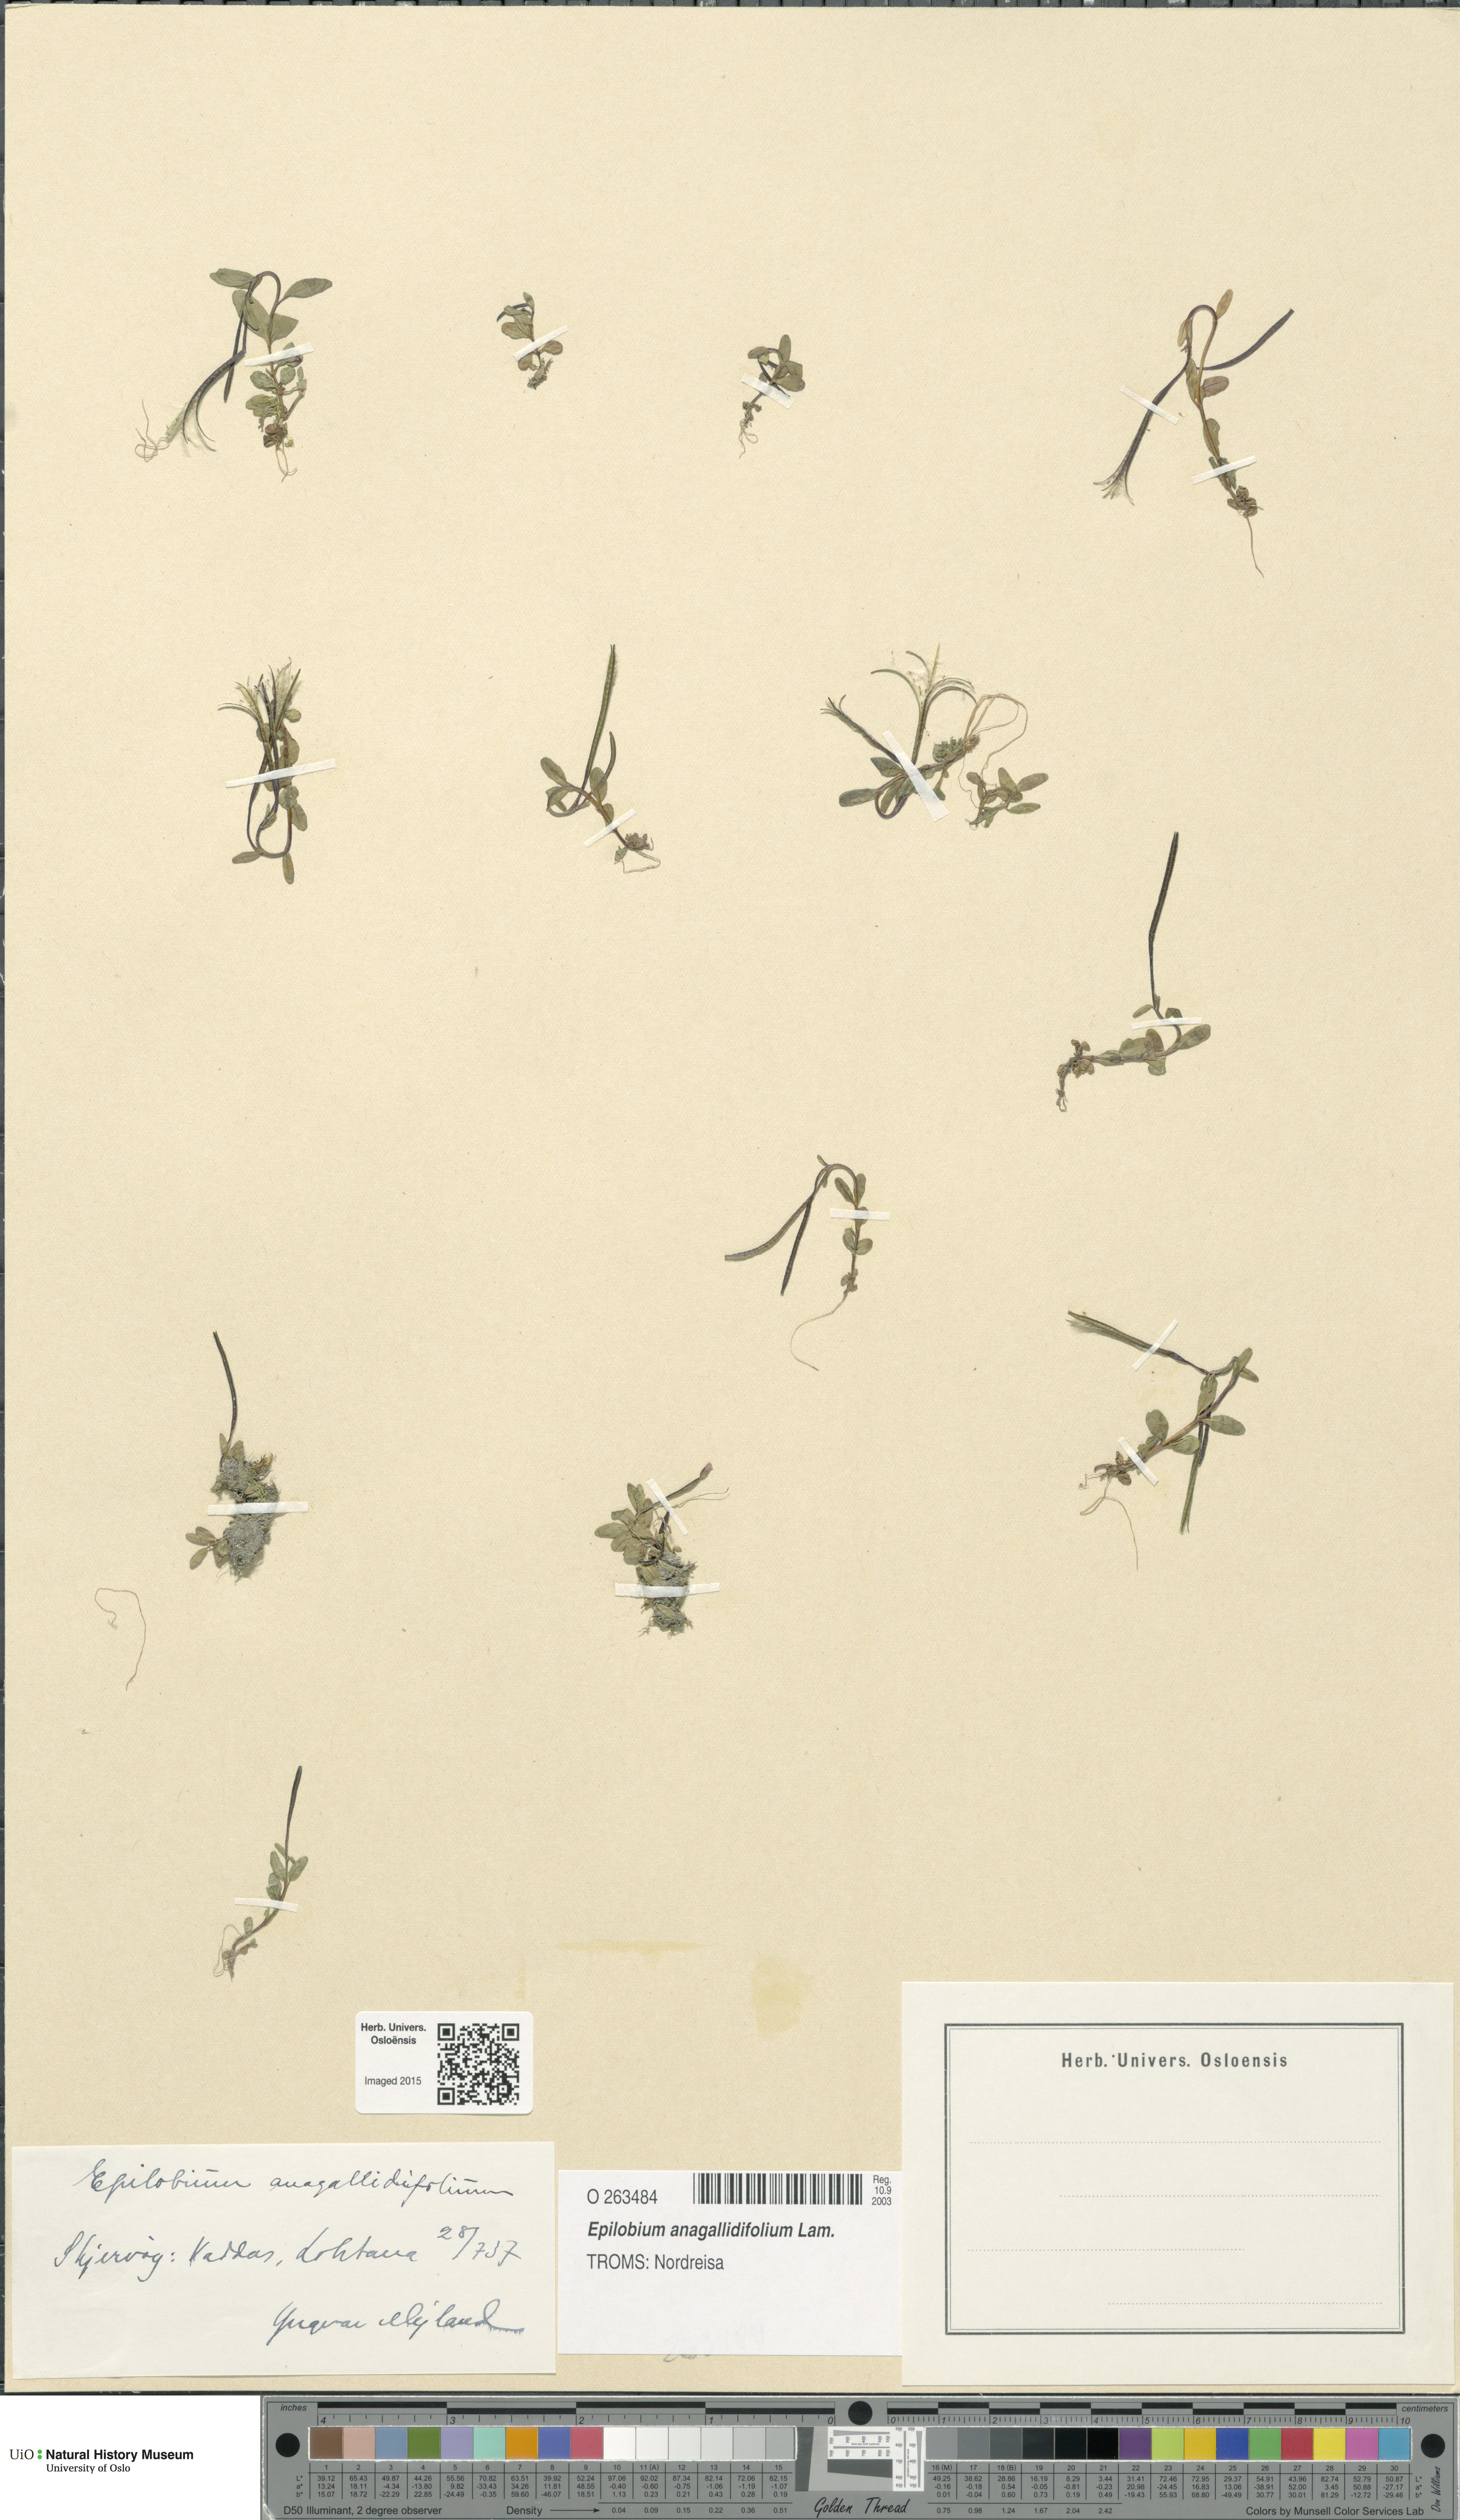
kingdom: Plantae
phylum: Tracheophyta
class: Magnoliopsida
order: Myrtales
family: Onagraceae
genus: Epilobium
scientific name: Epilobium anagallidifolium
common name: Alpine willowherb
